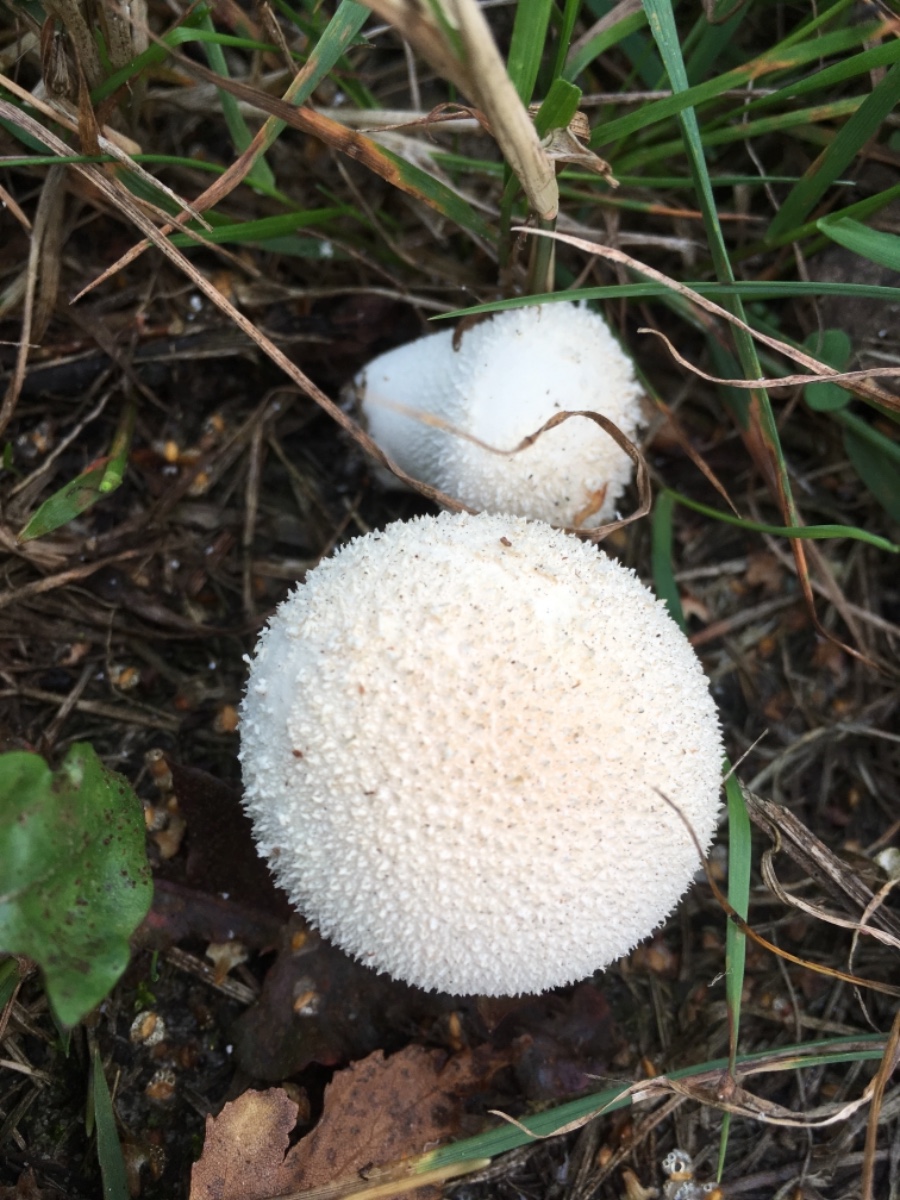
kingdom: Fungi
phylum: Basidiomycota
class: Agaricomycetes
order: Agaricales
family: Lycoperdaceae
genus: Lycoperdon
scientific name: Lycoperdon perlatum
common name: krystal-støvbold
